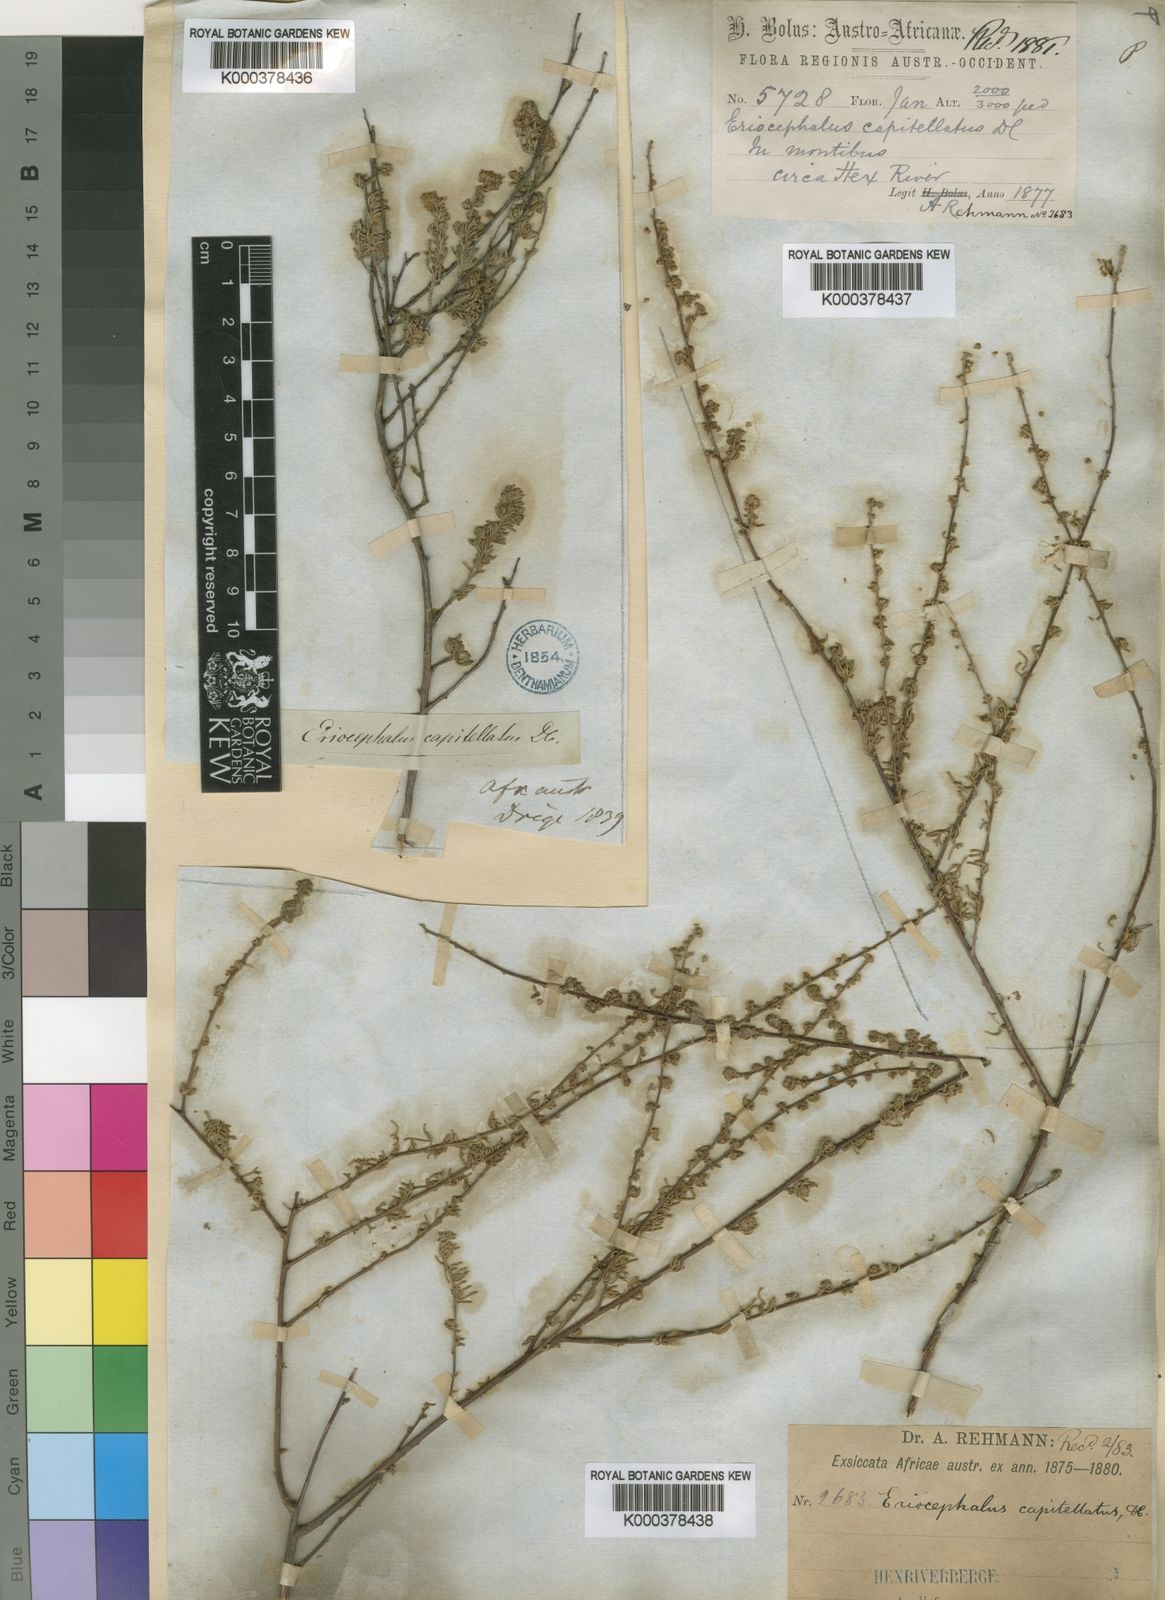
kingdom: Plantae
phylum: Tracheophyta
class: Magnoliopsida
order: Asterales
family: Asteraceae
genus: Eriocephalus
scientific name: Eriocephalus capitellatus
